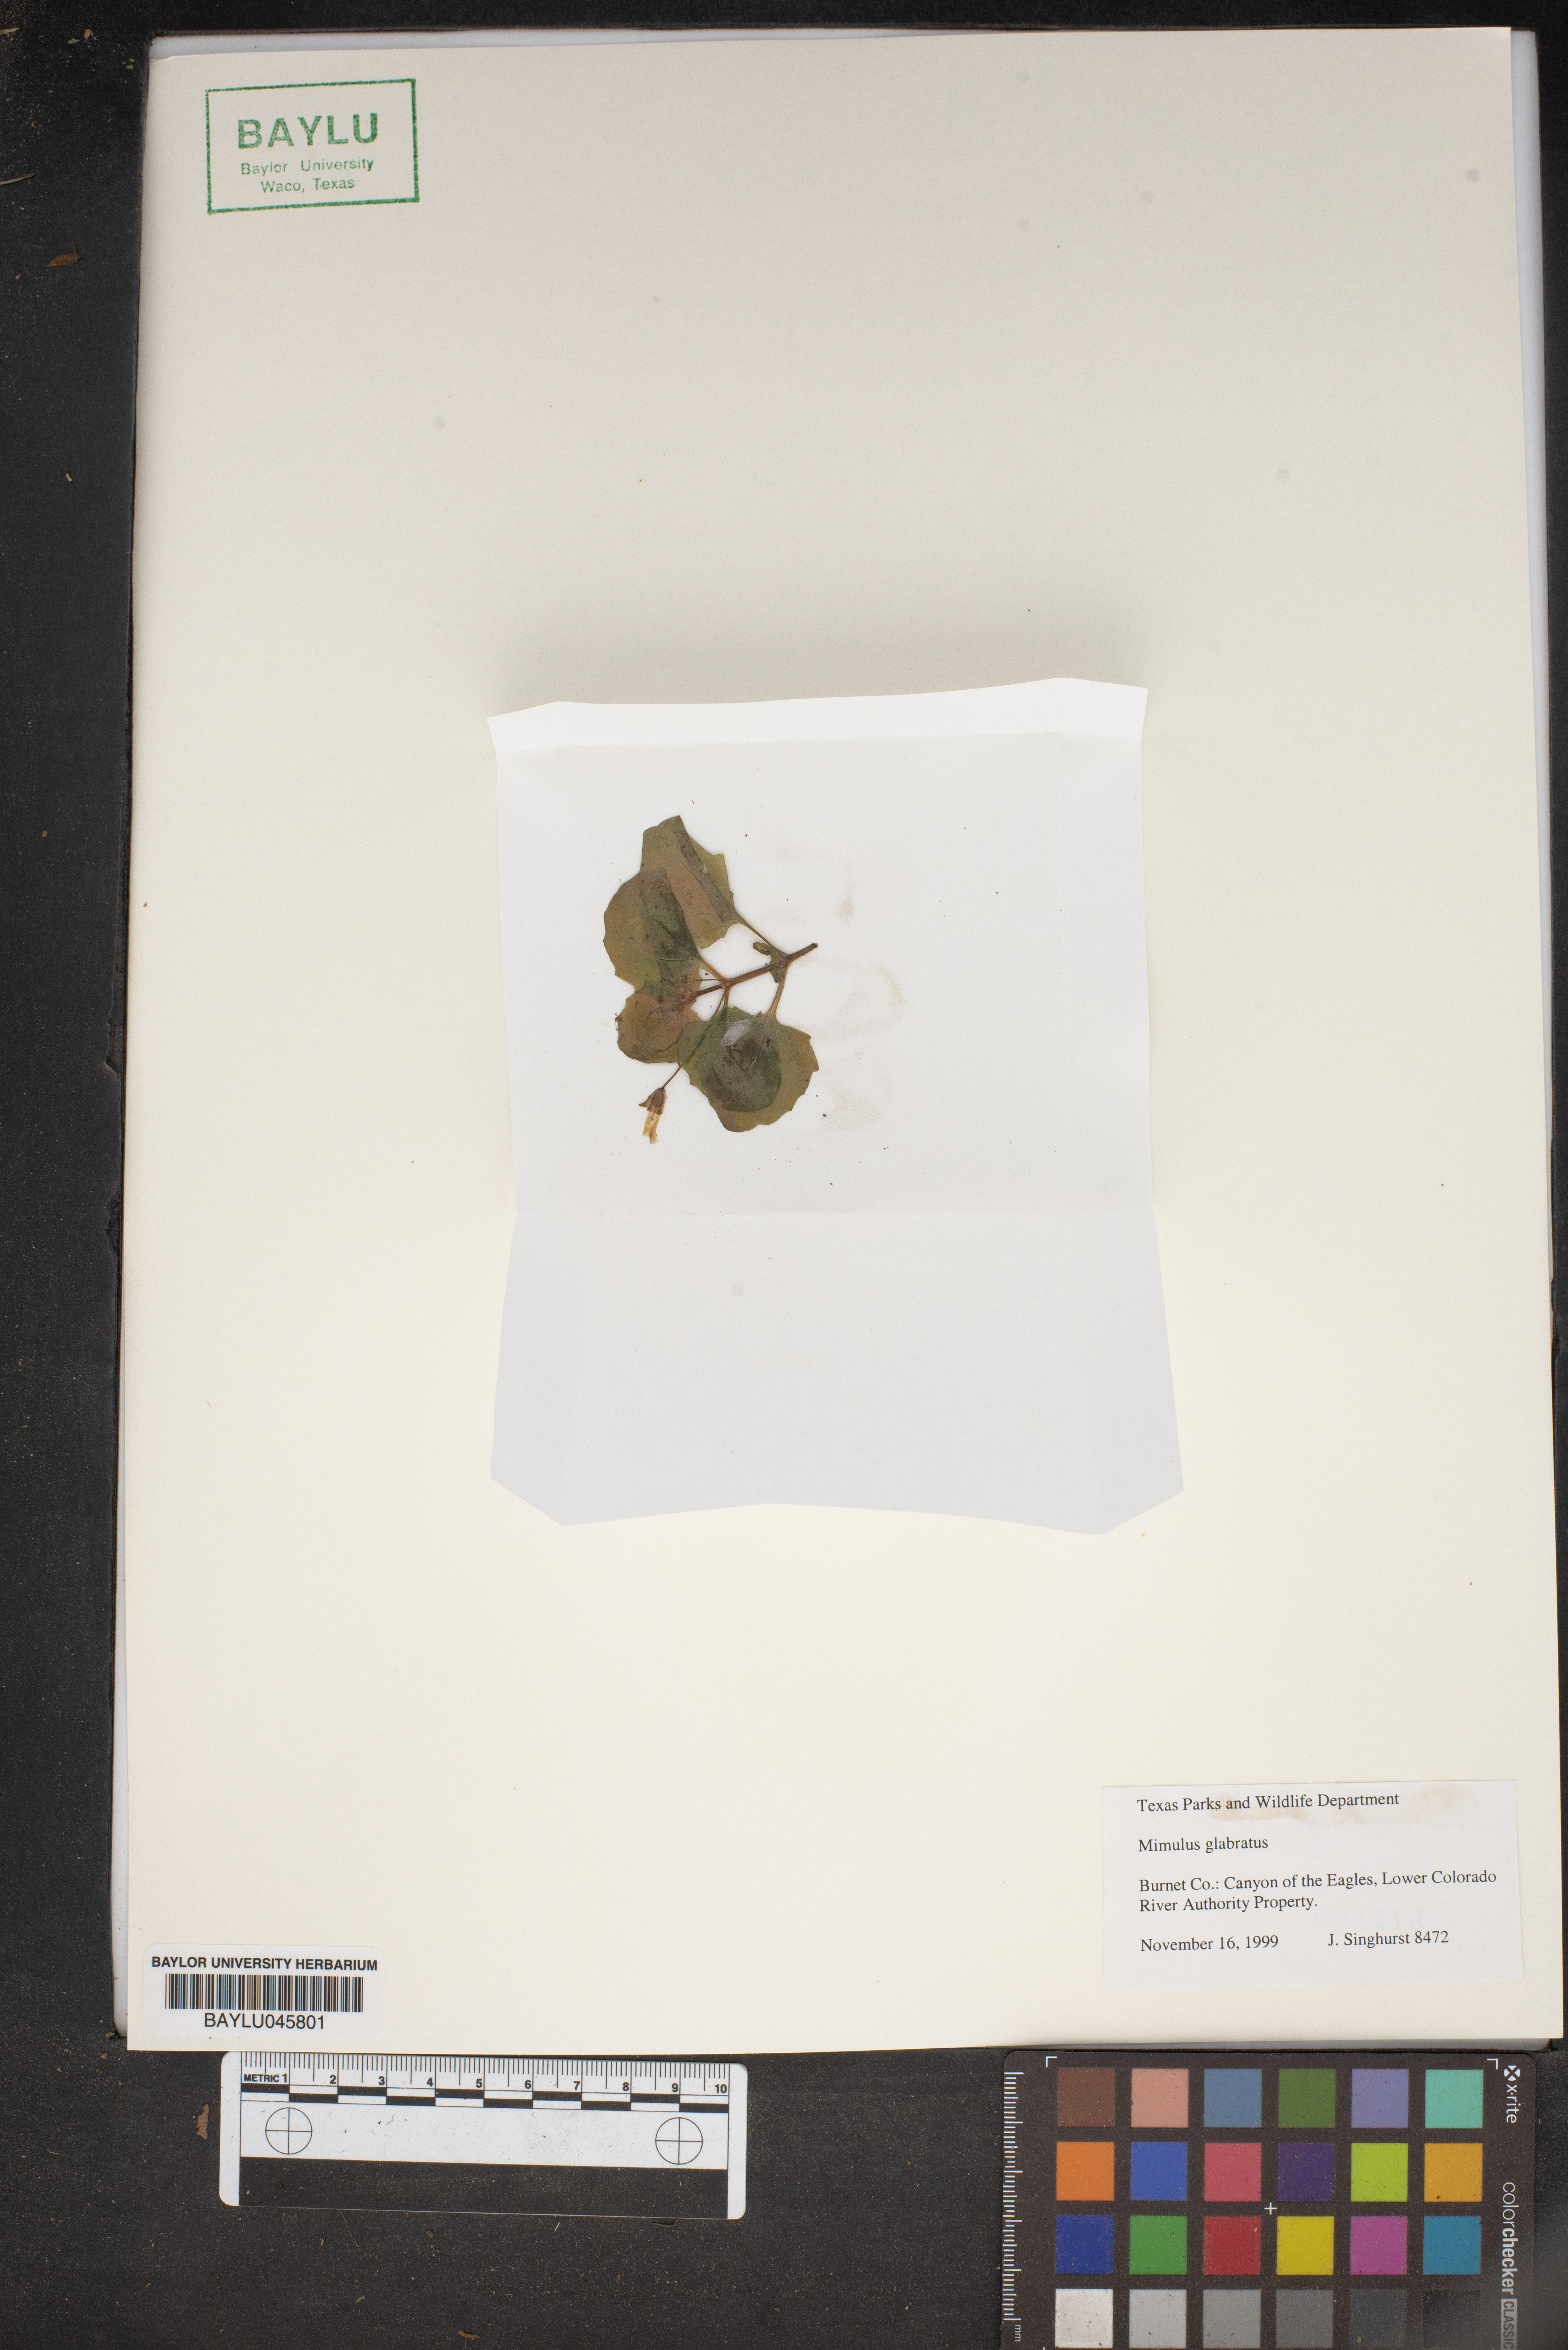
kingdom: Plantae
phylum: Tracheophyta
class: Magnoliopsida
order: Lamiales
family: Phrymaceae
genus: Erythranthe
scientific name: Erythranthe glabrata
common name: Round-leaved monkeyflower
